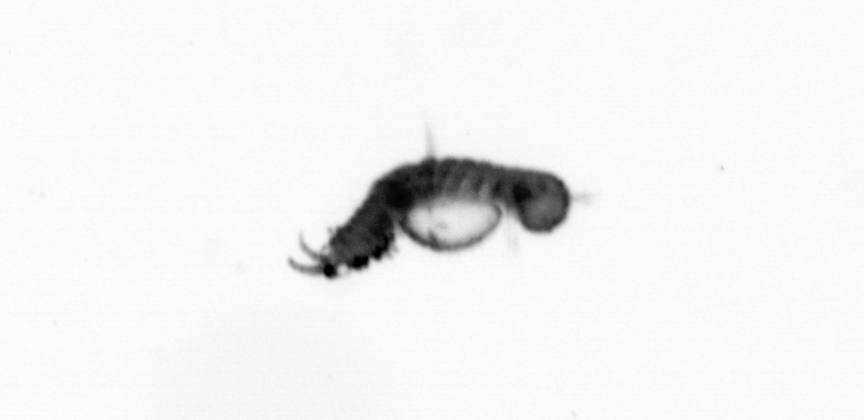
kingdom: Animalia
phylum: Annelida
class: Polychaeta
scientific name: Polychaeta
